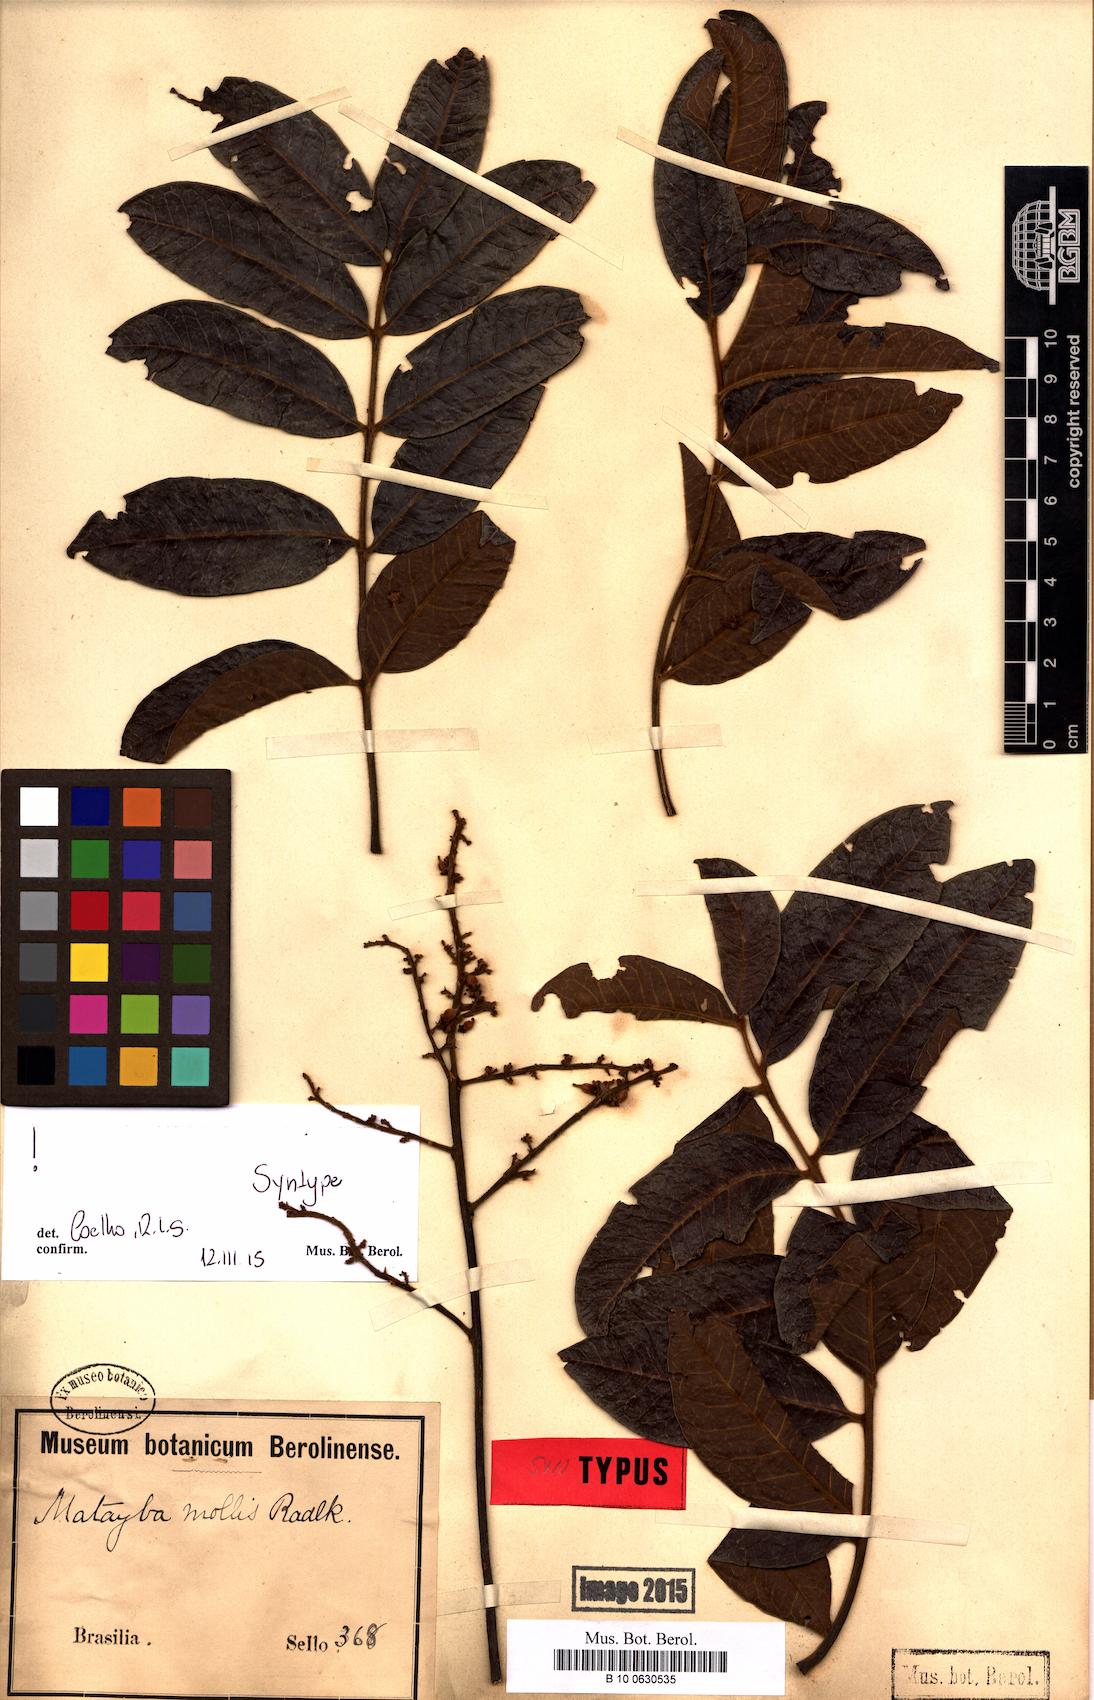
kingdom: Plantae
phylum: Tracheophyta
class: Magnoliopsida
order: Sapindales
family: Sapindaceae
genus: Matayba
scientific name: Matayba mollis
